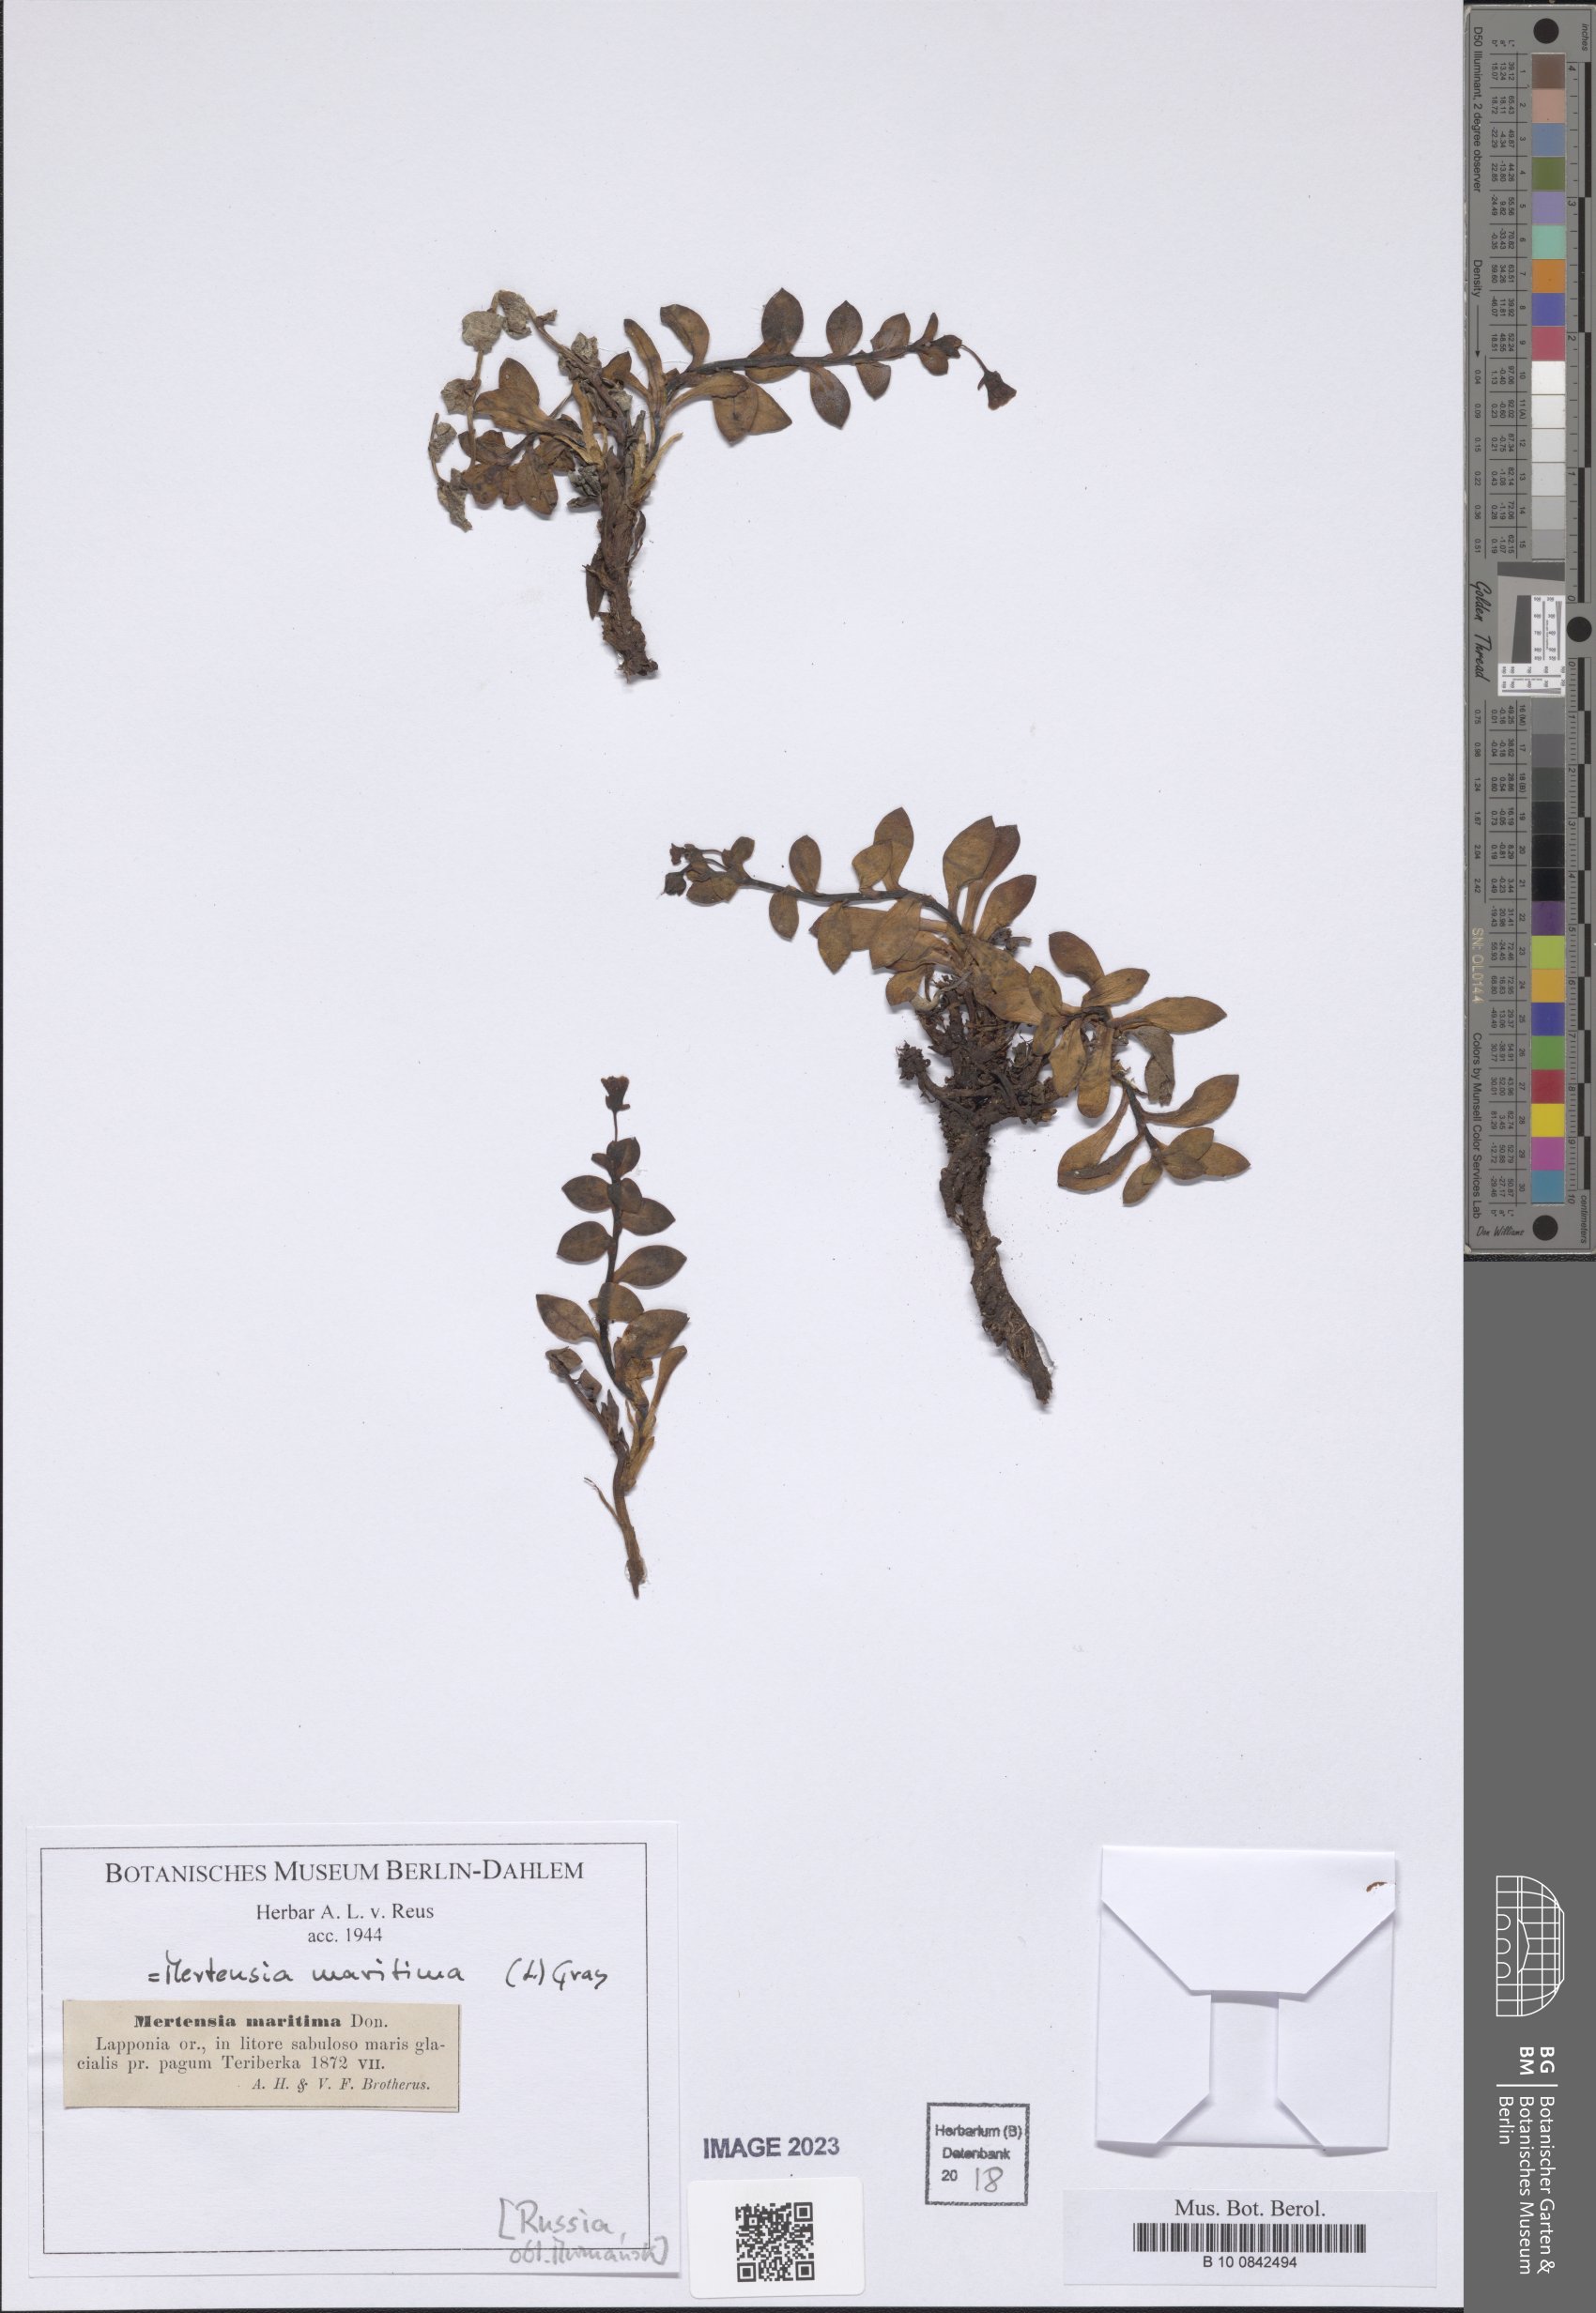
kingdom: Plantae
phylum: Tracheophyta
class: Magnoliopsida
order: Boraginales
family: Boraginaceae
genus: Mertensia
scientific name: Mertensia maritima
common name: Oysterplant
